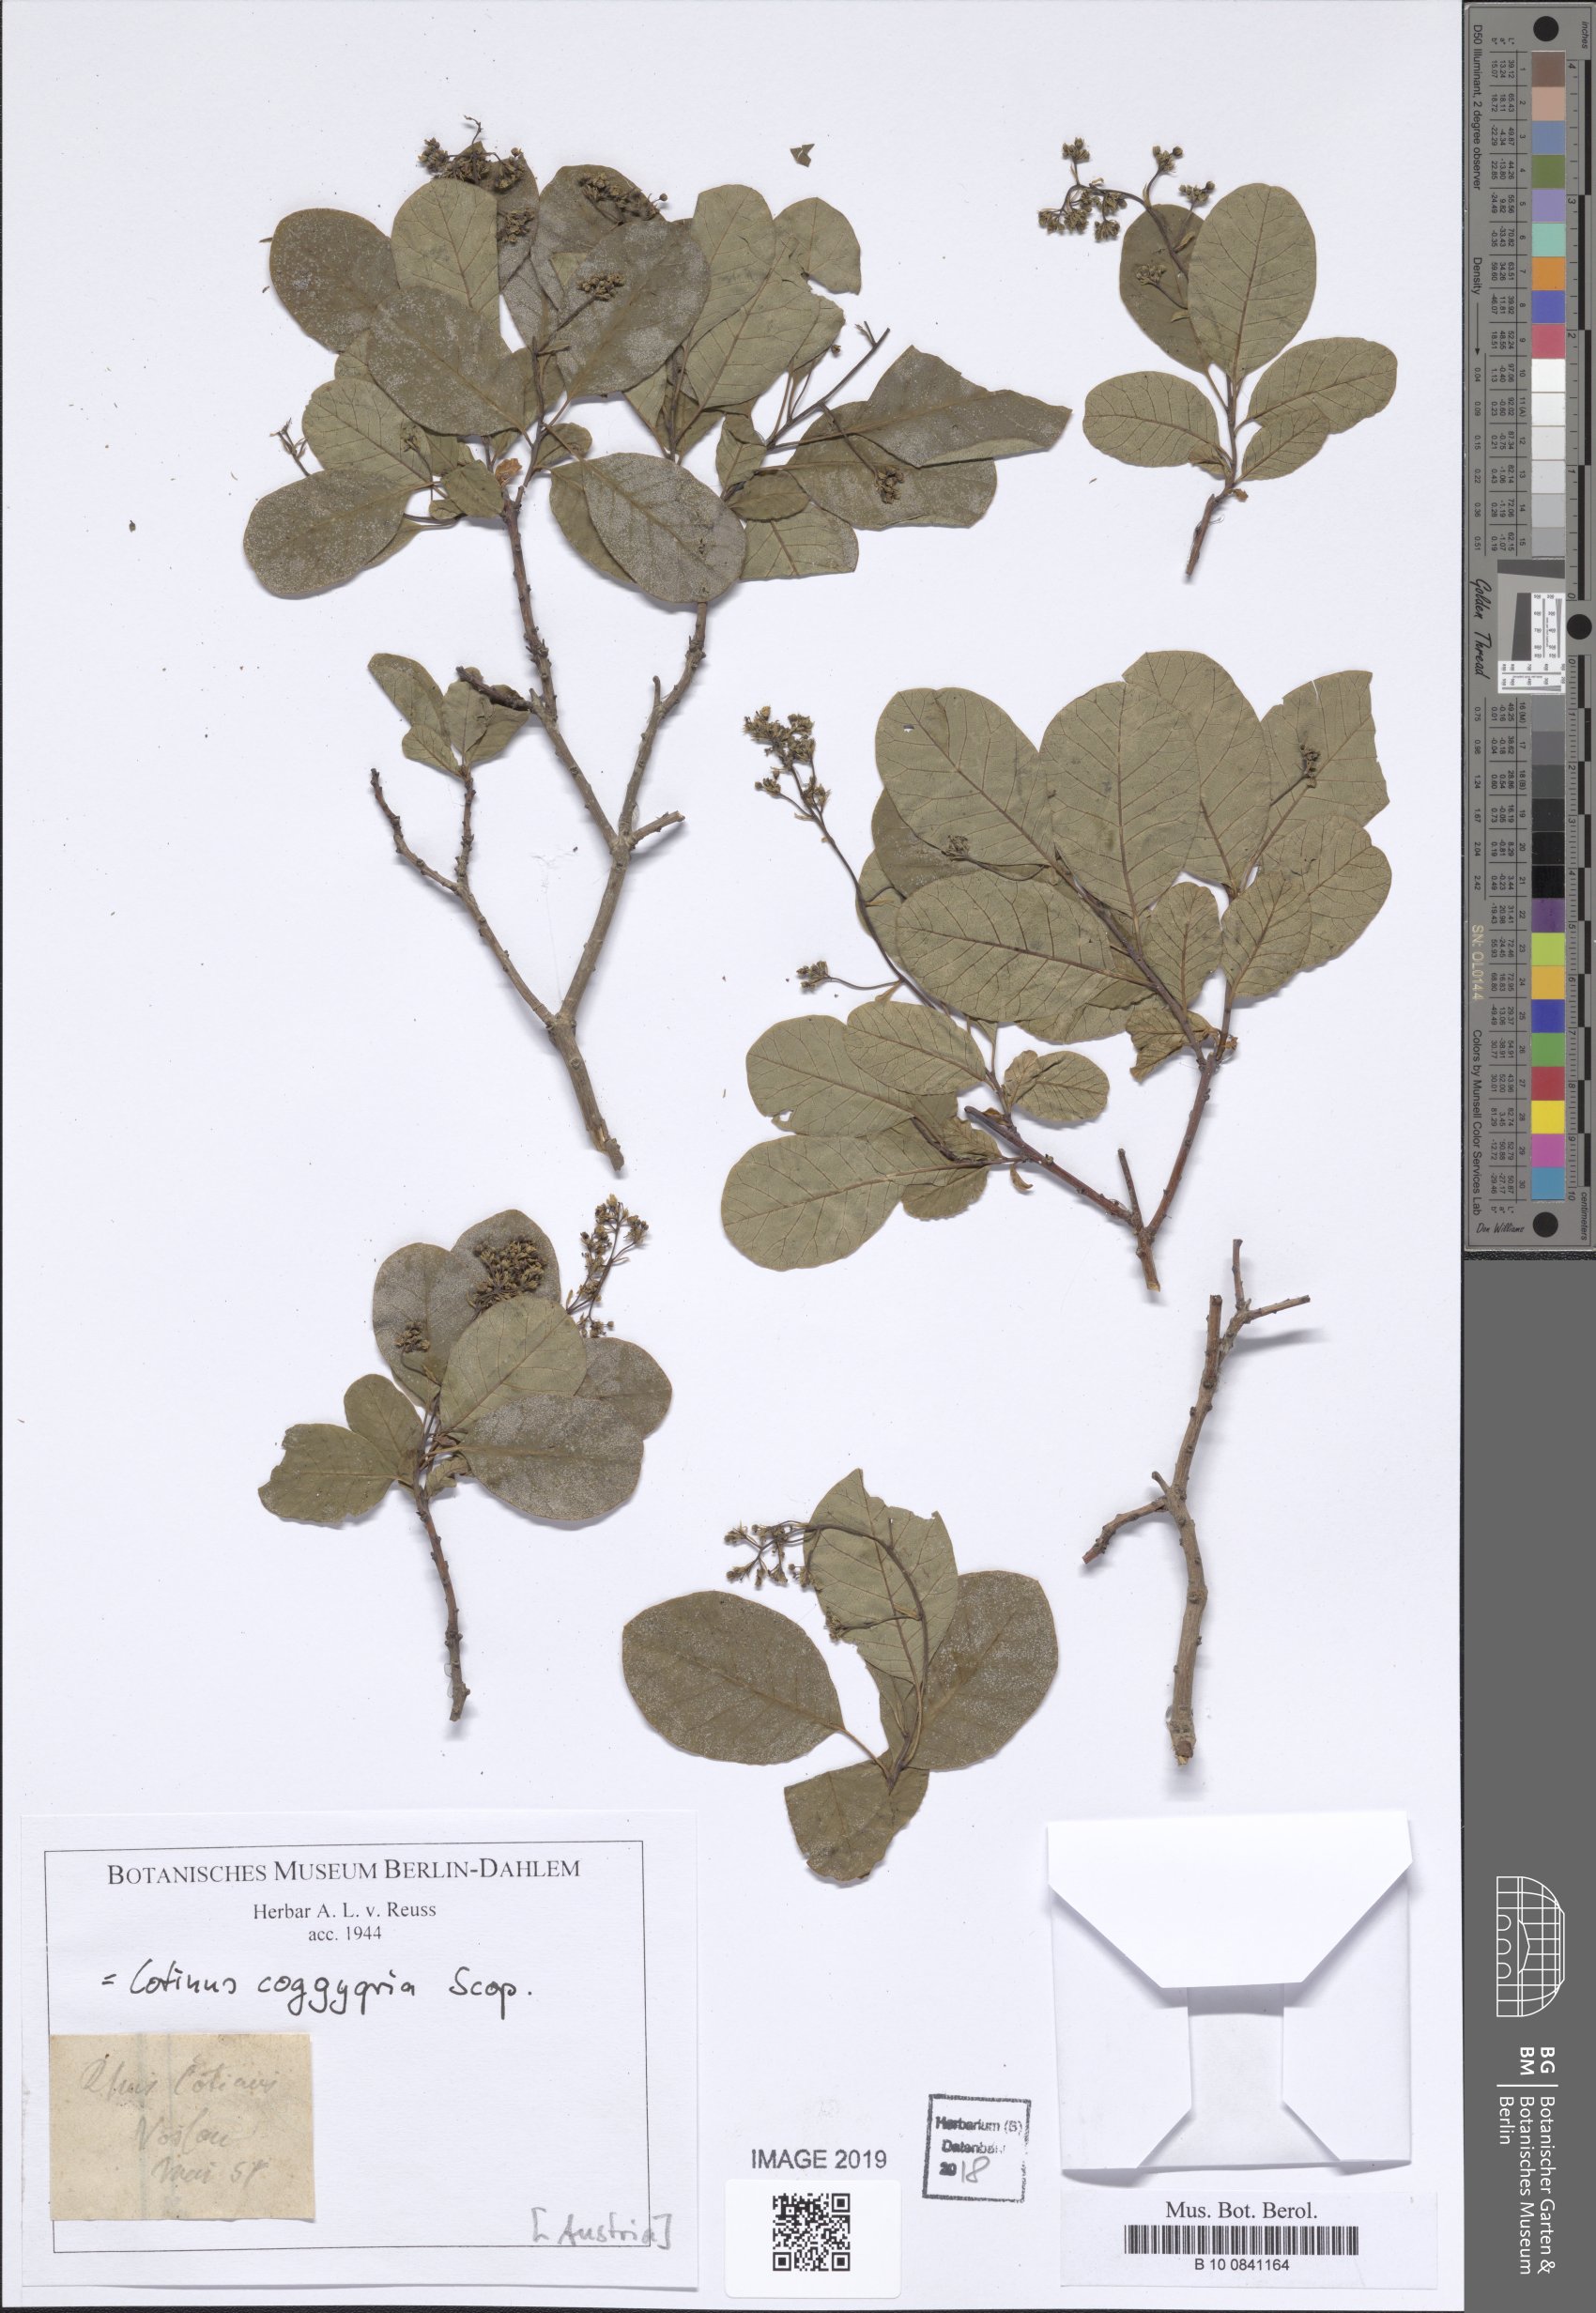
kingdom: Plantae
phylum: Tracheophyta
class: Magnoliopsida
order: Sapindales
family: Anacardiaceae
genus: Cotinus
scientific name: Cotinus coggygria
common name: Smoke-tree
